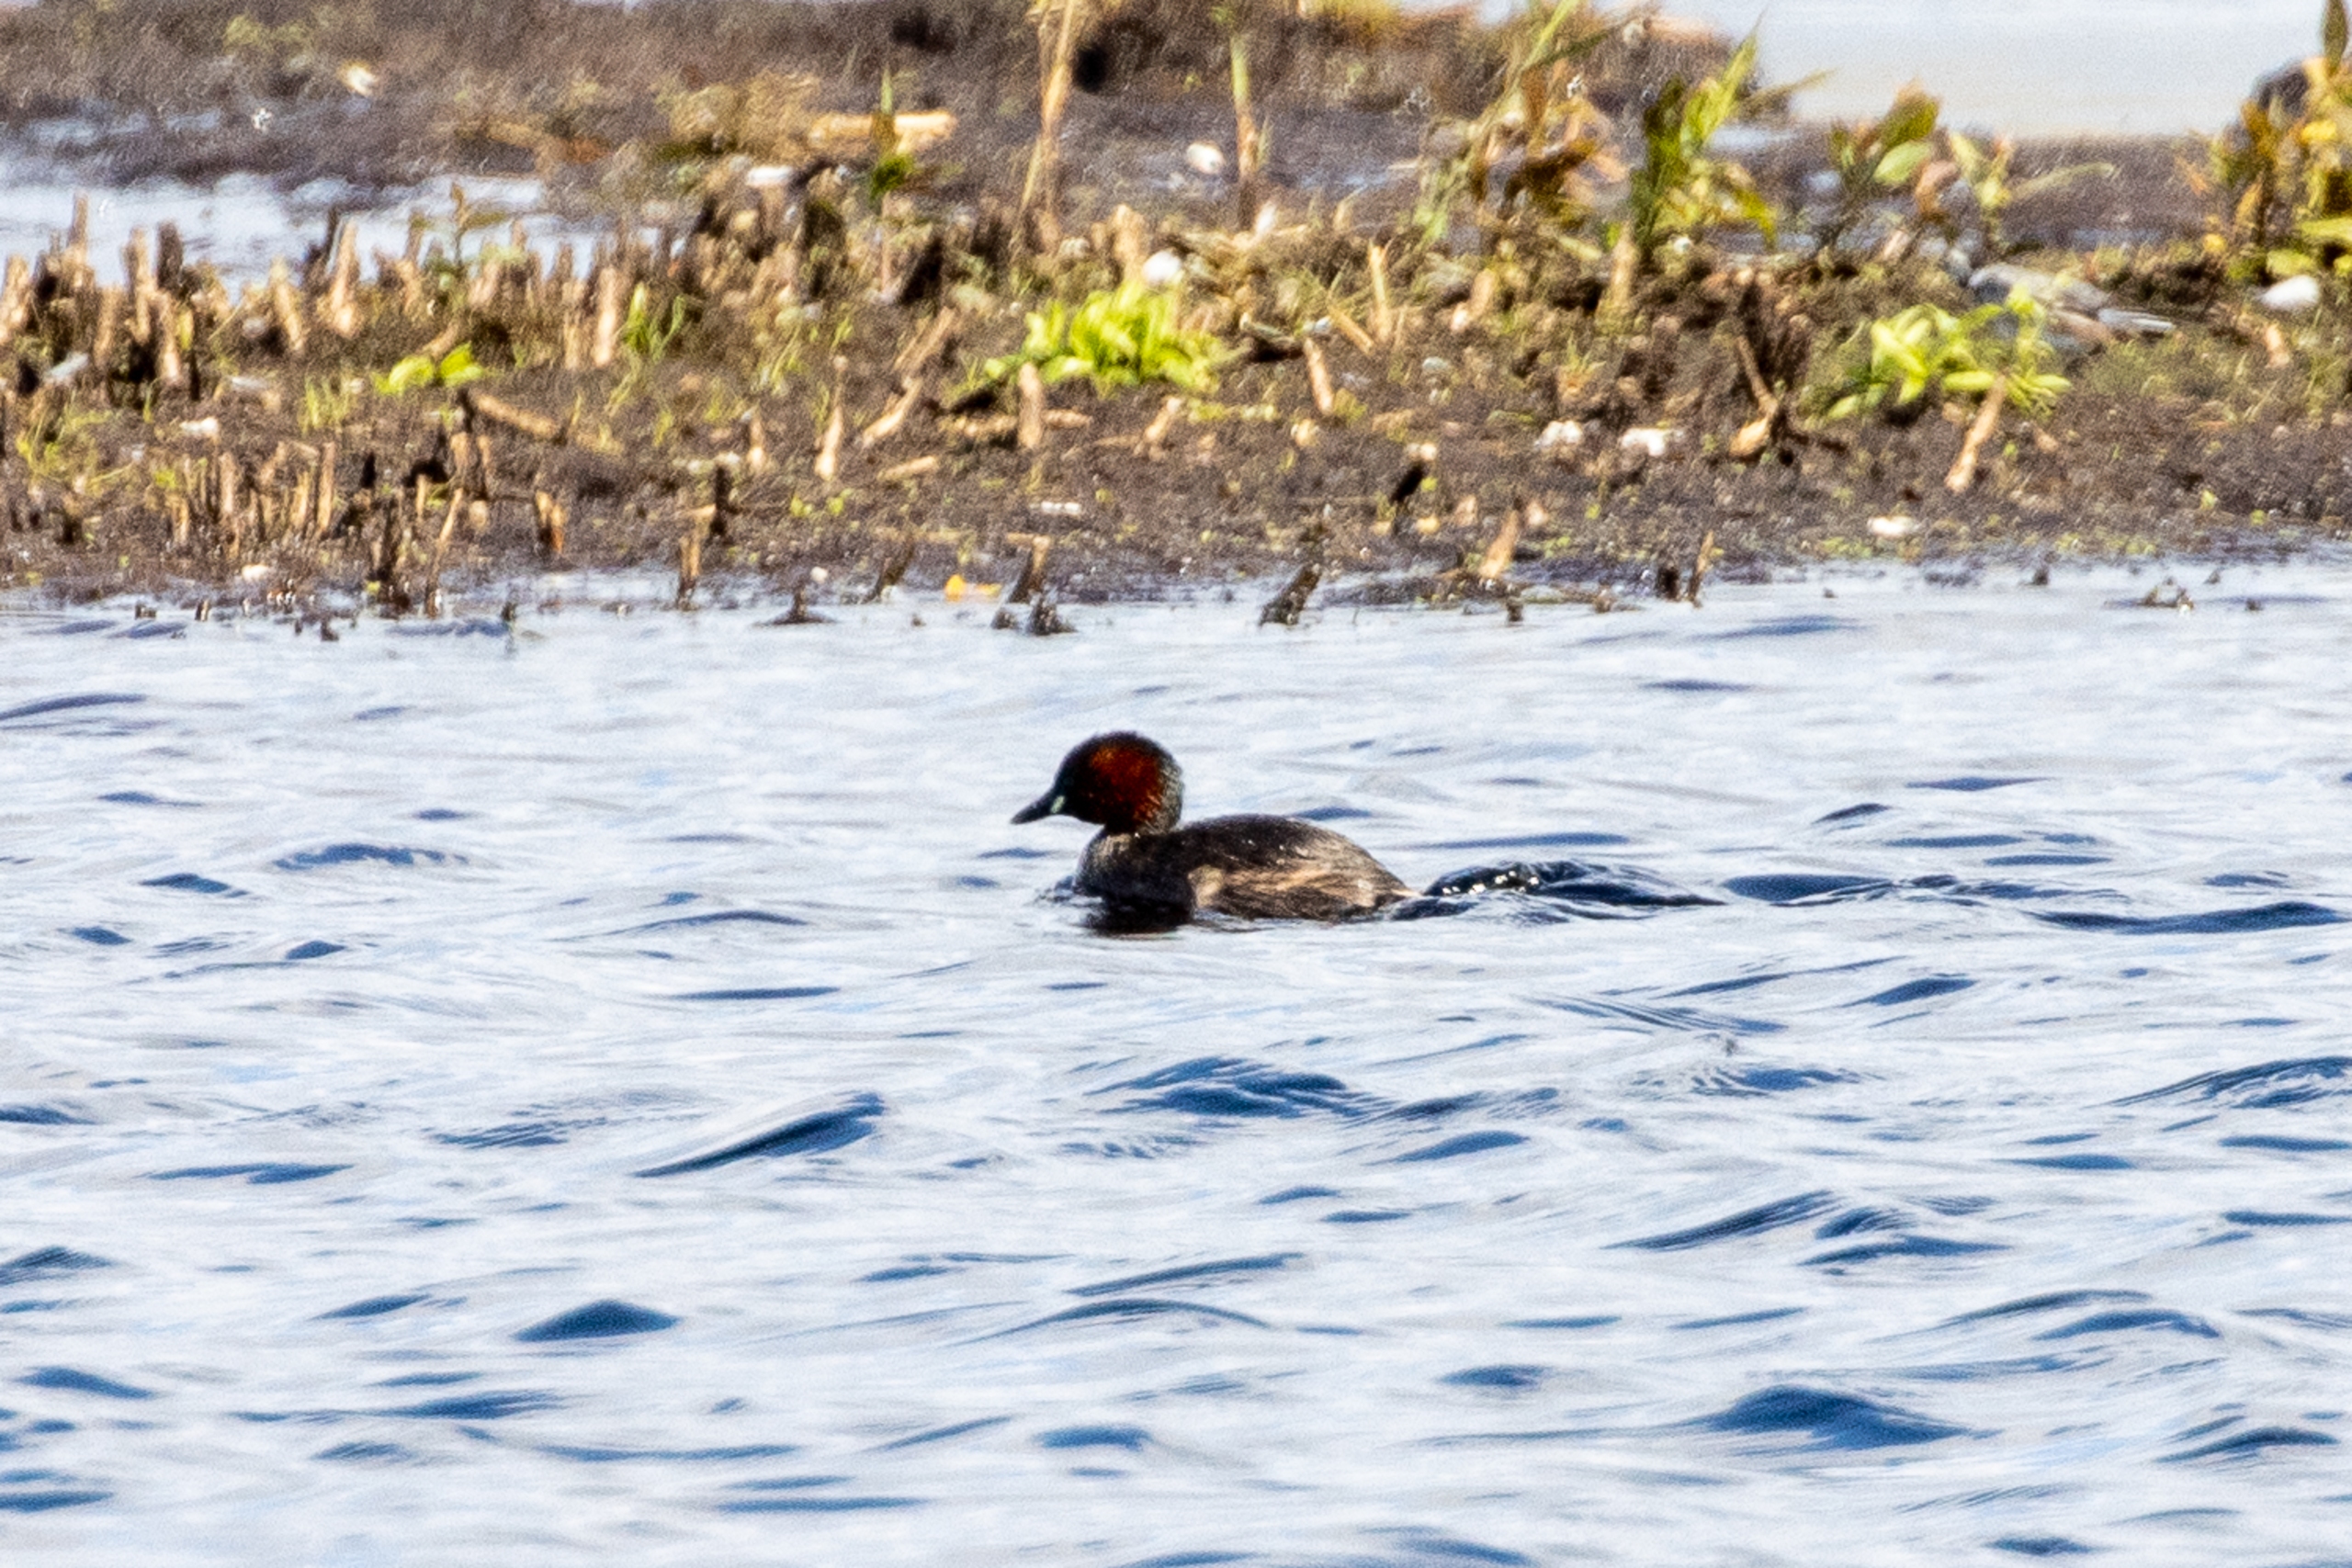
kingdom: Animalia
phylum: Chordata
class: Aves
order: Podicipediformes
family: Podicipedidae
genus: Tachybaptus
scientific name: Tachybaptus ruficollis
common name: Lille lappedykker
